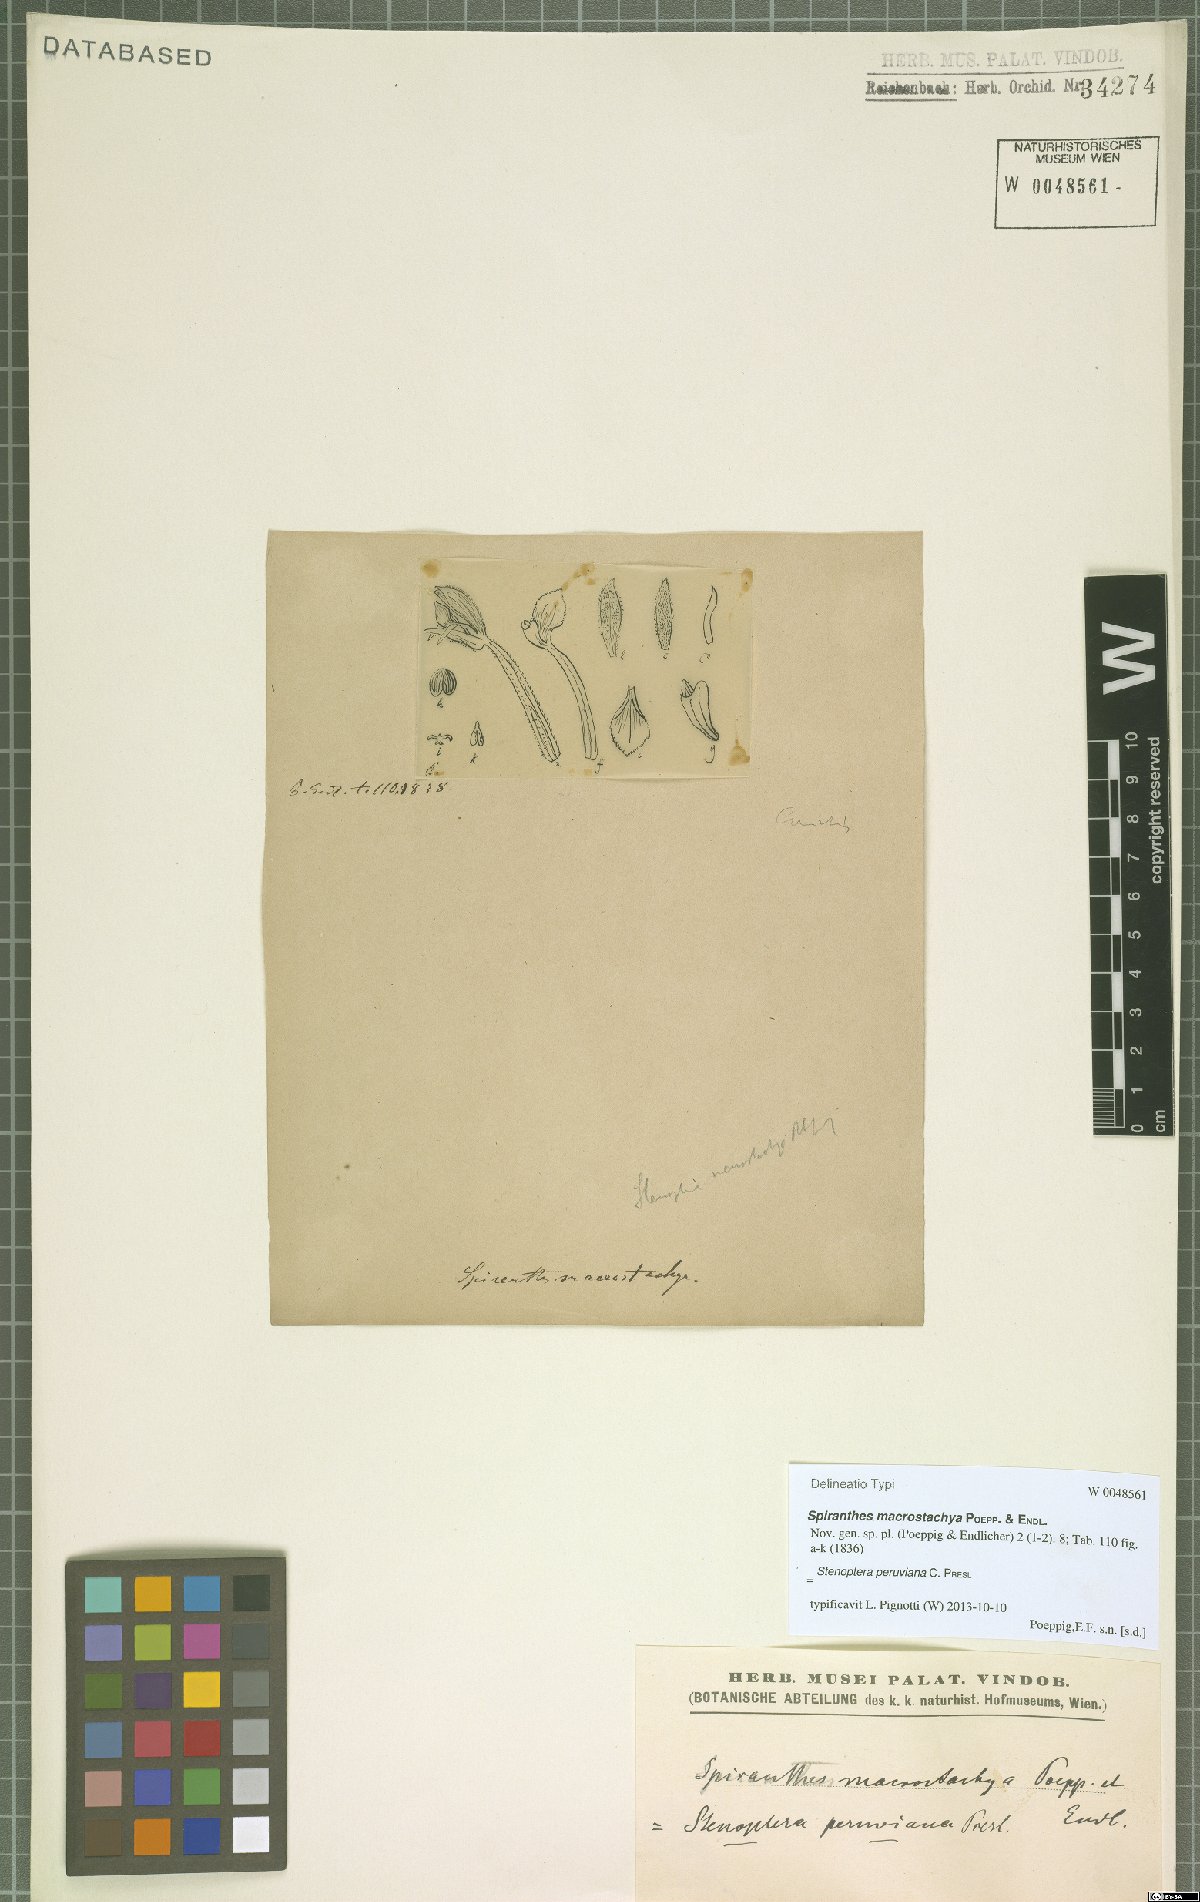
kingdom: Plantae
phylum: Tracheophyta
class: Liliopsida
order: Asparagales
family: Orchidaceae
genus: Stenoptera
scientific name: Stenoptera peruviana
